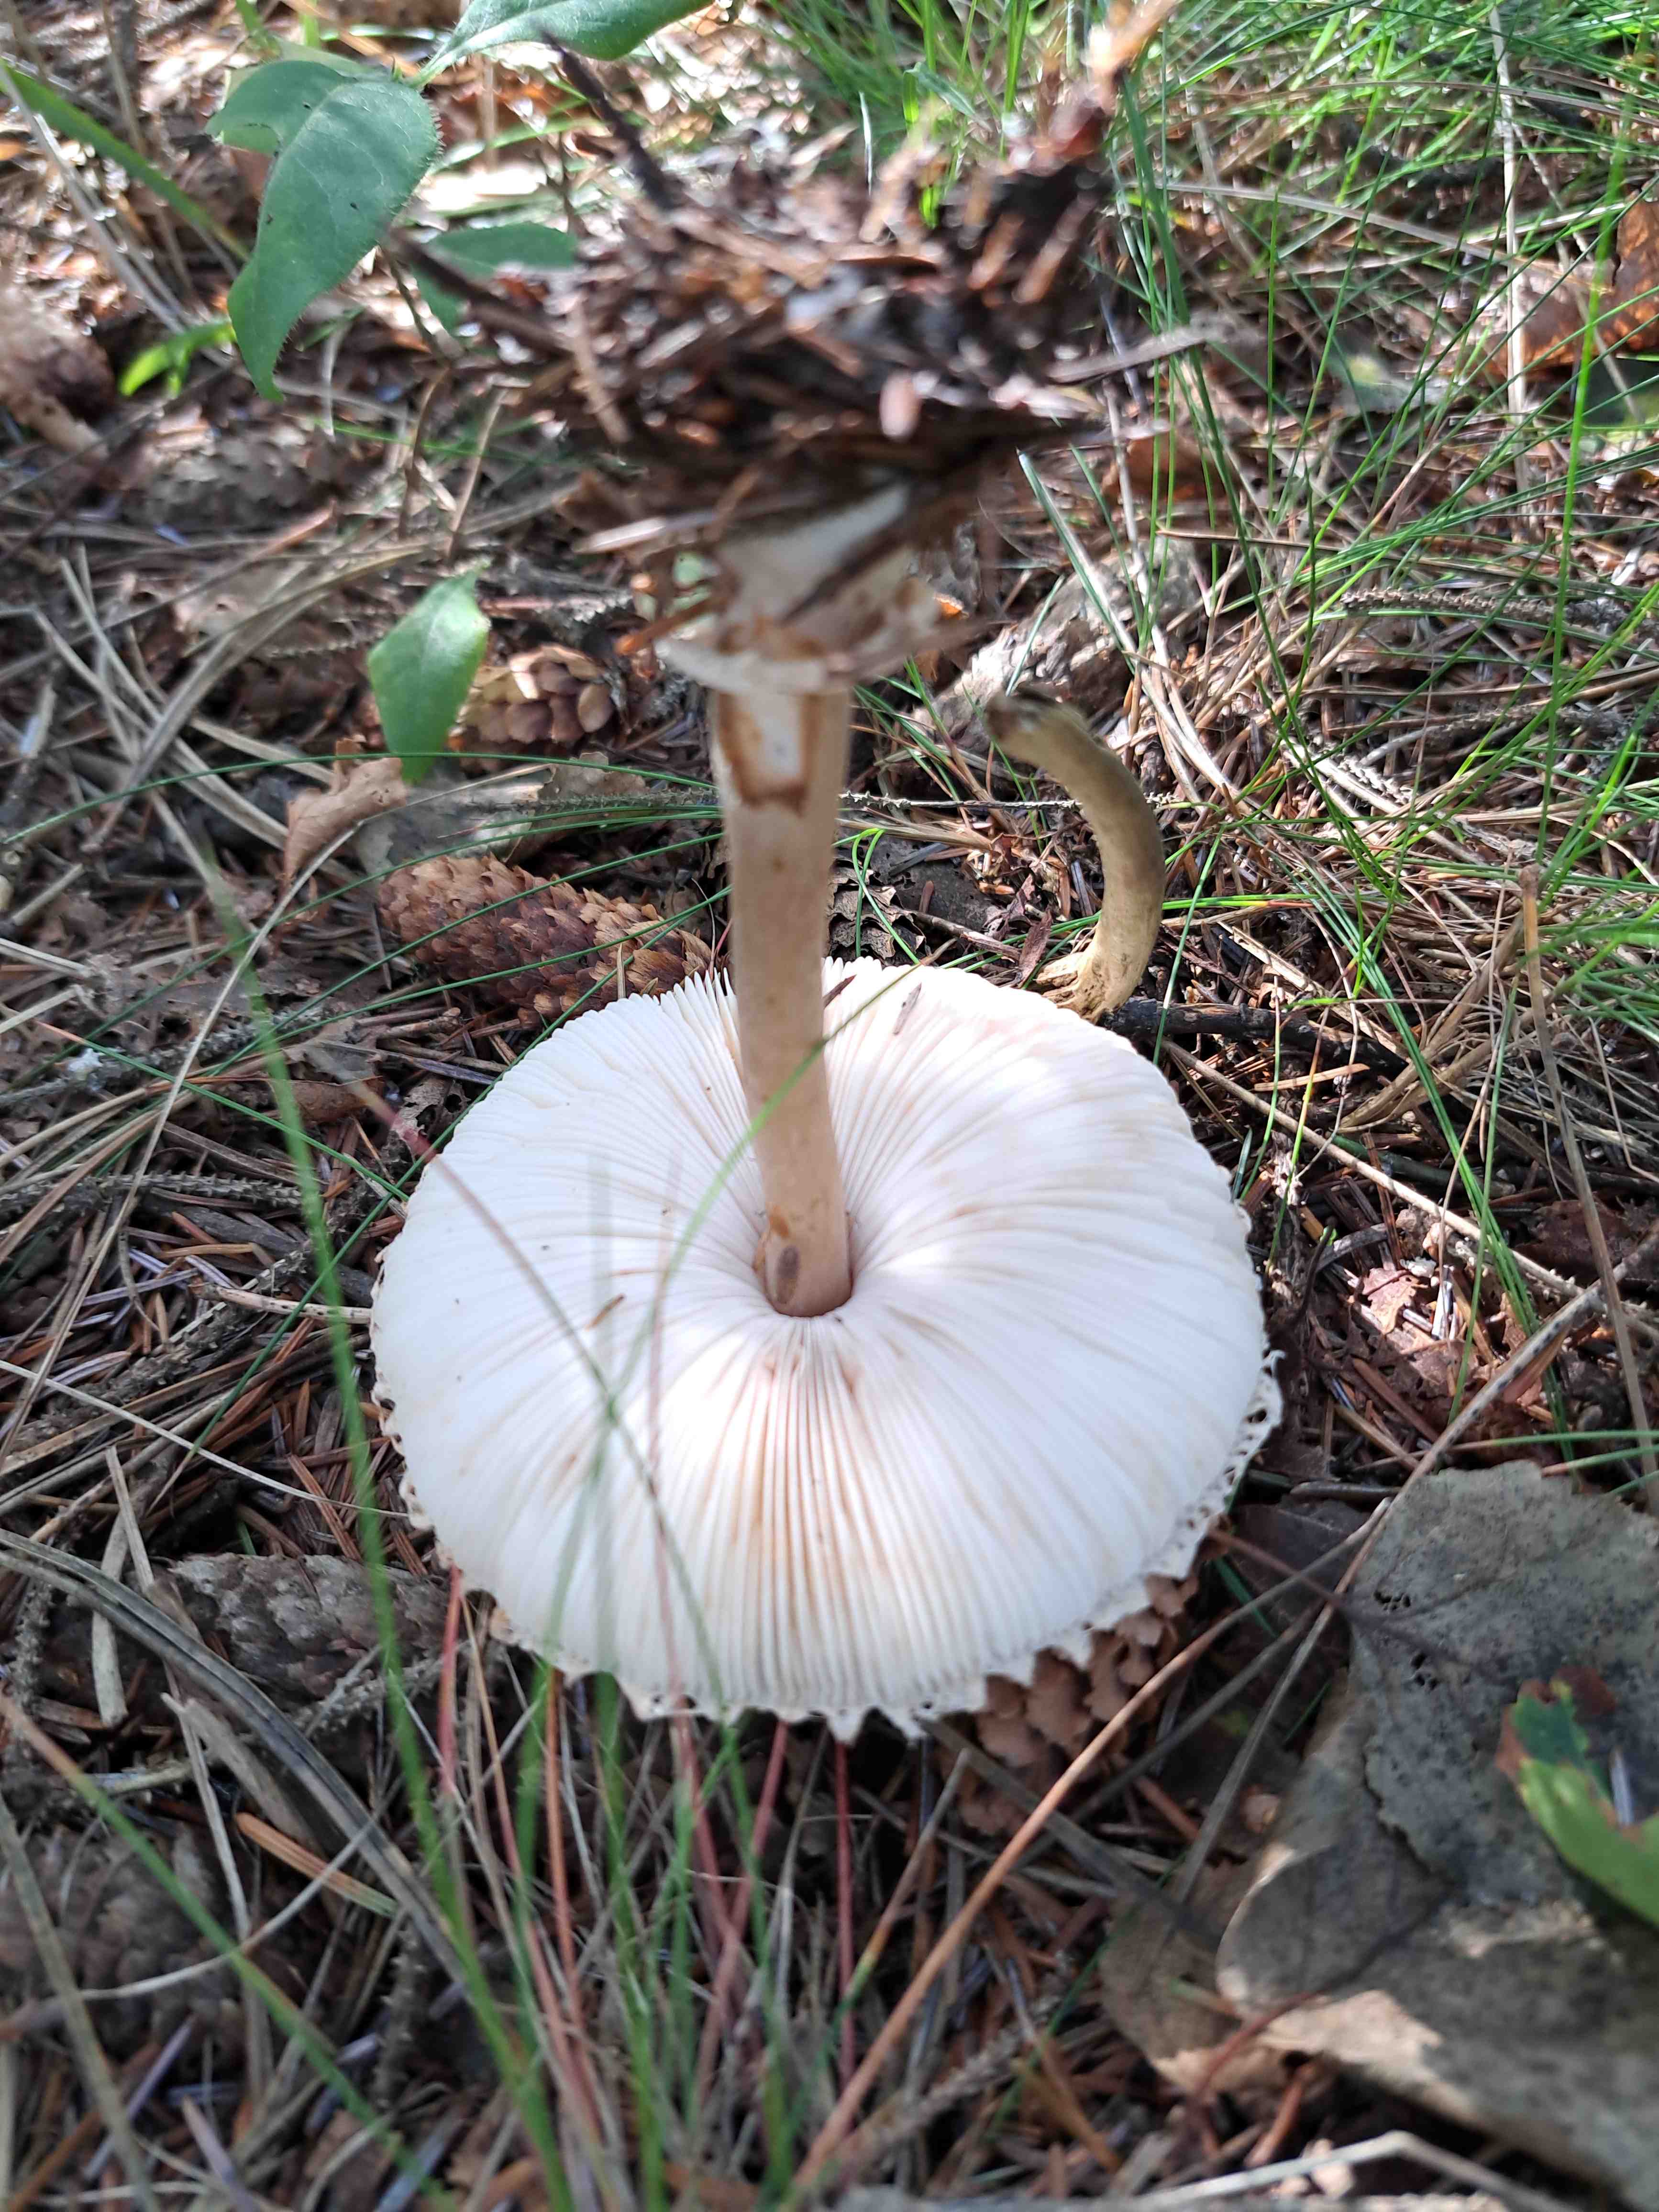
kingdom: Fungi
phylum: Basidiomycota
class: Agaricomycetes
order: Agaricales
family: Agaricaceae
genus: Leucoagaricus
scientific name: Leucoagaricus nympharum
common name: gran-silkehat
